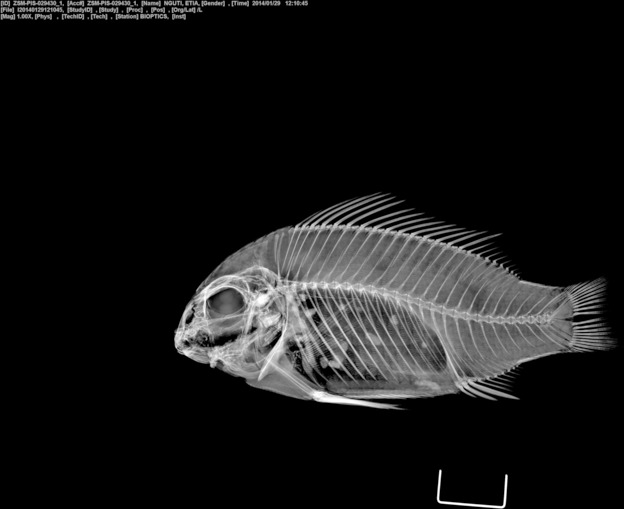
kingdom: Animalia
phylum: Chordata
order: Perciformes
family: Cichlidae
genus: Etia
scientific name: Etia nguti
